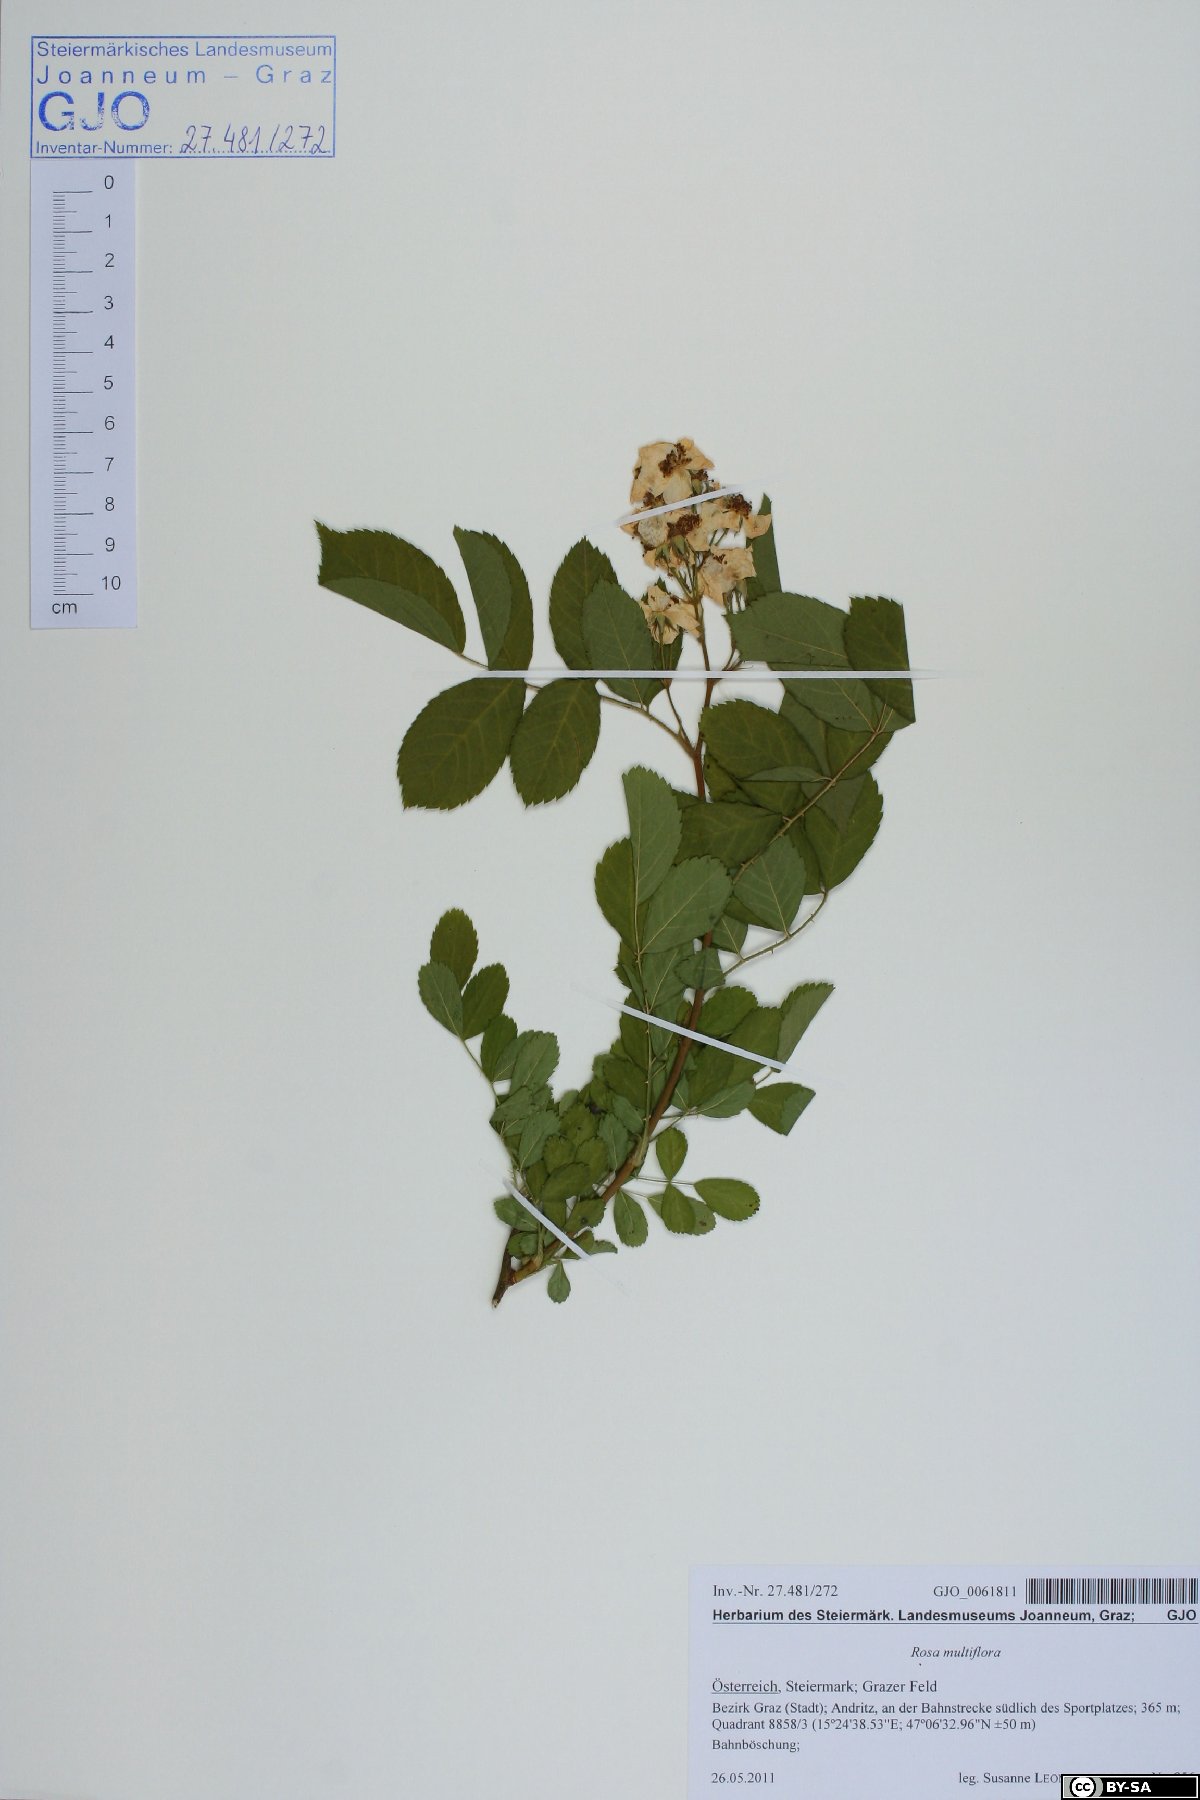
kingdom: Plantae
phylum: Tracheophyta
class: Magnoliopsida
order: Rosales
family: Rosaceae
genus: Rosa
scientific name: Rosa multiflora
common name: Multiflora rose
